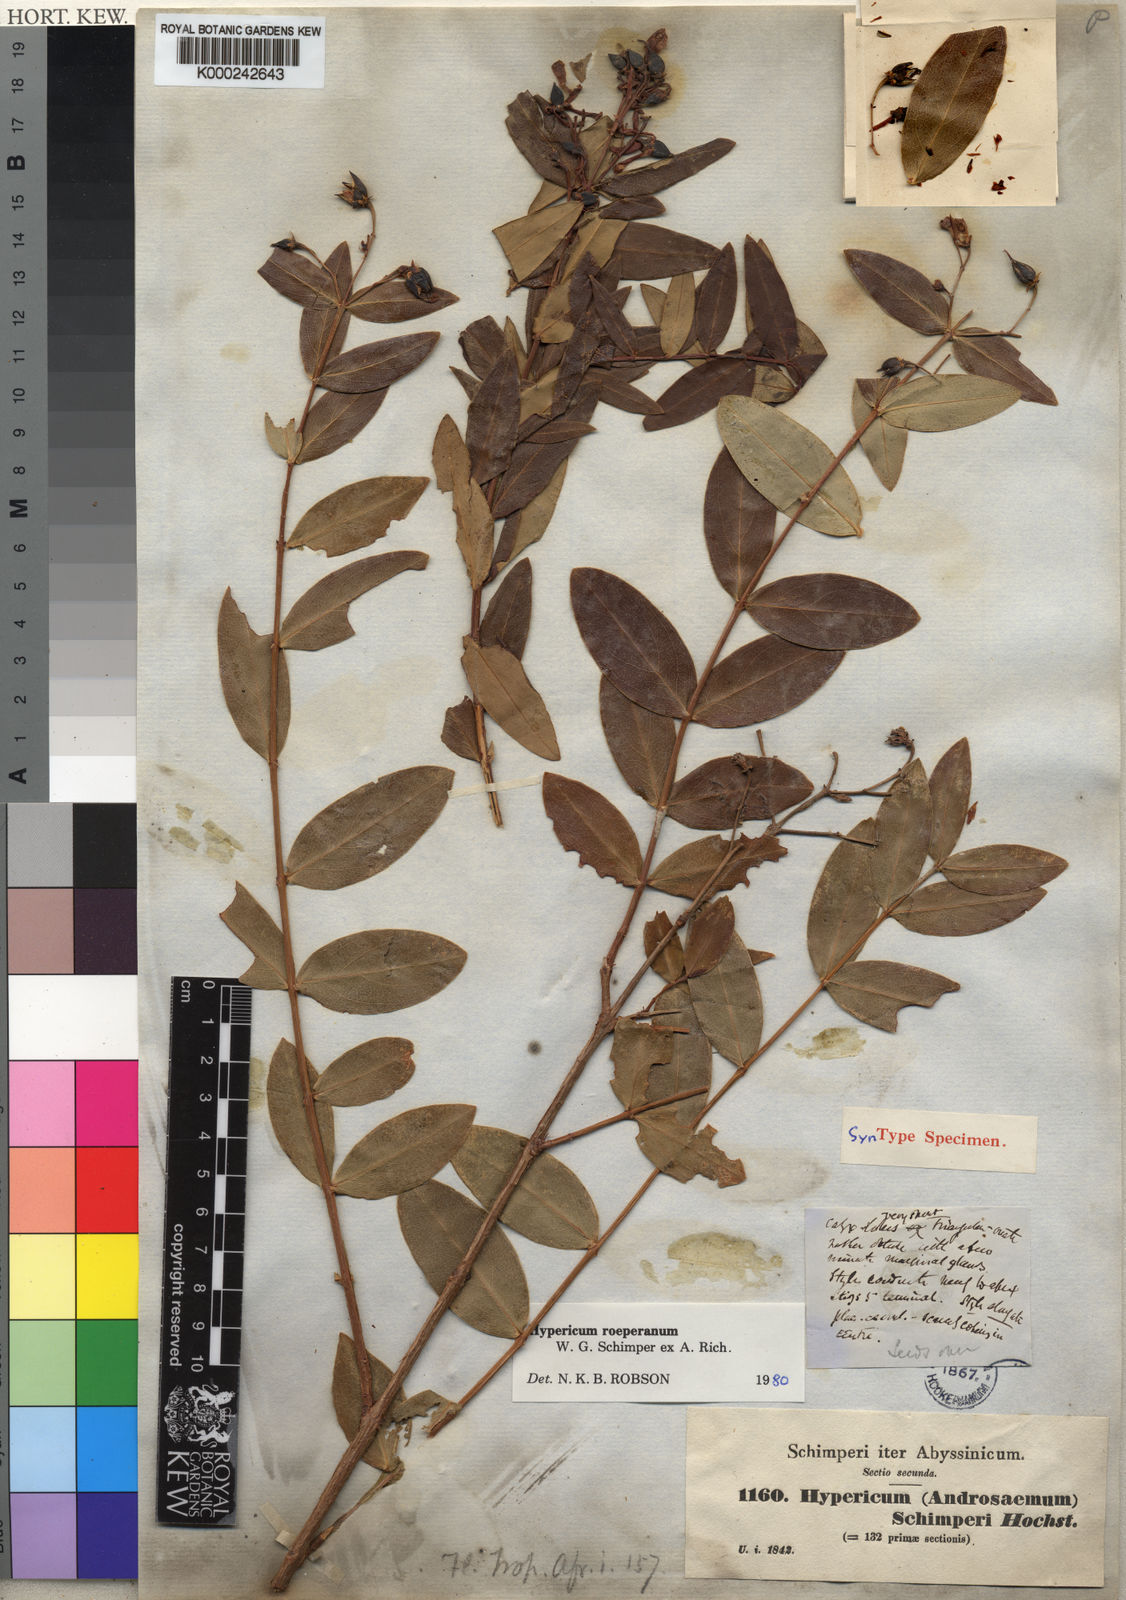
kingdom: Plantae
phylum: Tracheophyta
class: Magnoliopsida
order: Malpighiales
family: Hypericaceae
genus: Hypericum
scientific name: Hypericum
